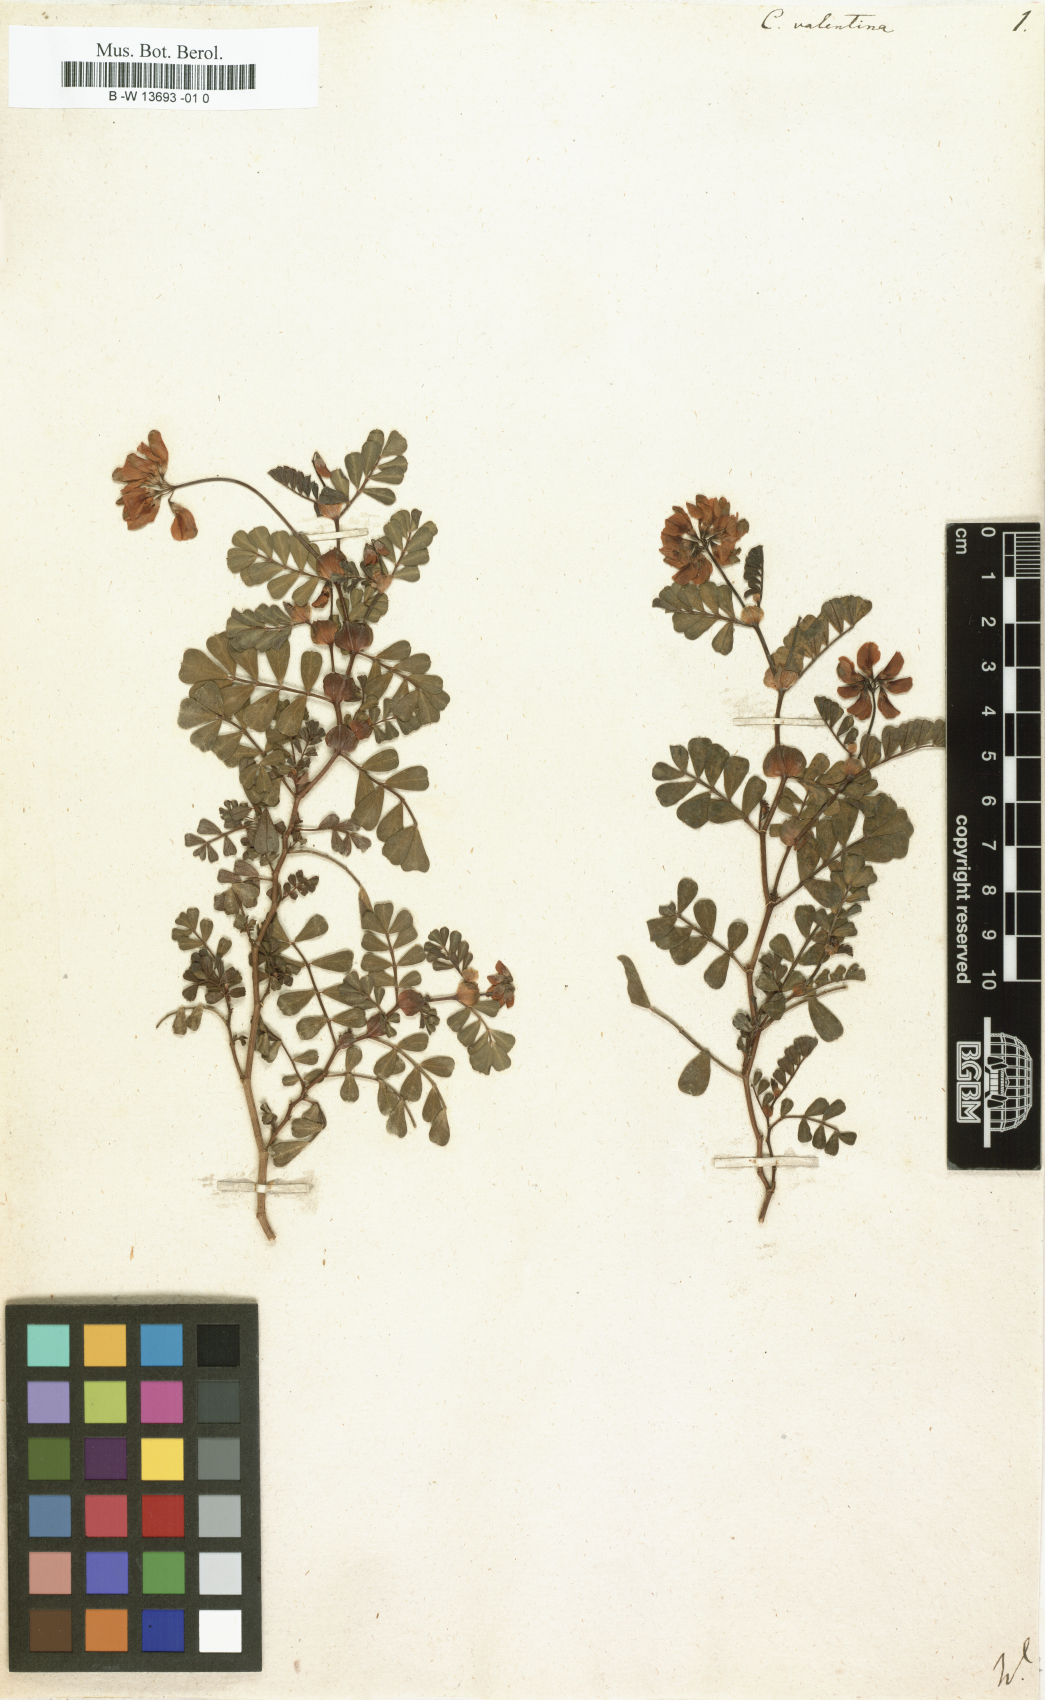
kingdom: Plantae
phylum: Tracheophyta
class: Magnoliopsida
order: Fabales
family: Fabaceae
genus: Coronilla
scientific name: Coronilla valentina
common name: Shrubby scorpion-vetch
